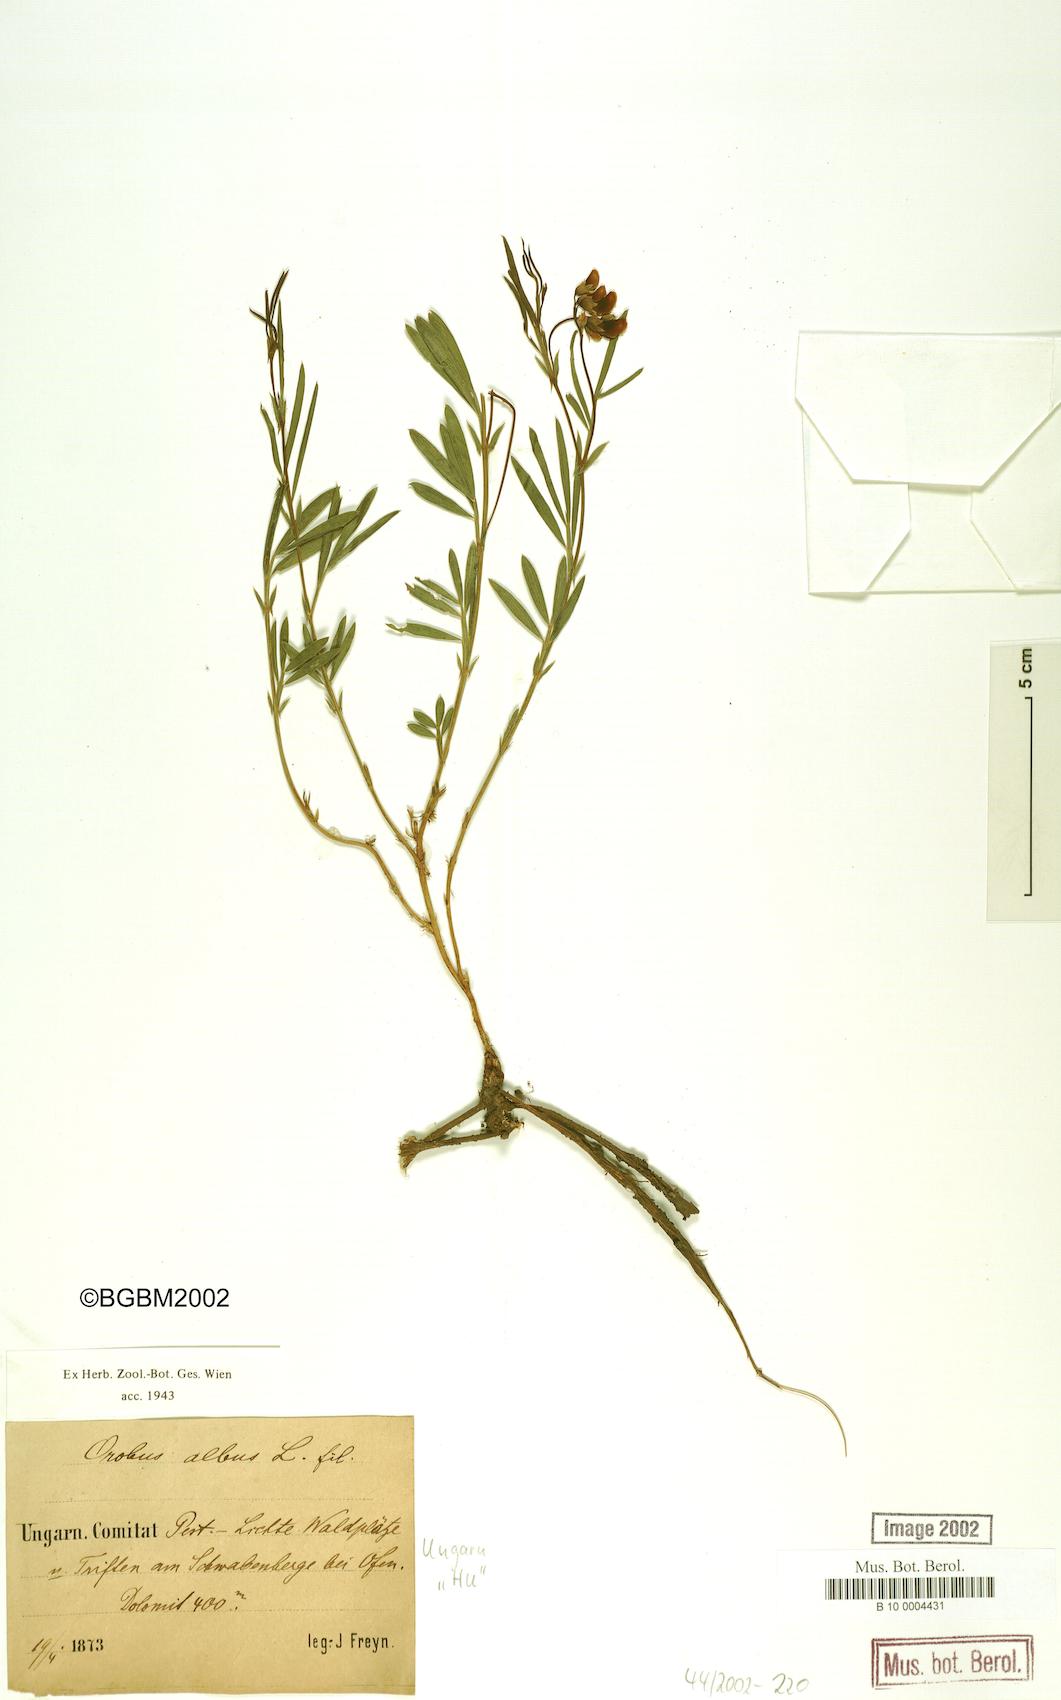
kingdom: Plantae
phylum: Tracheophyta
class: Magnoliopsida
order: Fabales
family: Fabaceae
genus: Lathyrus
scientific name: Lathyrus pannonicus
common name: Pea
